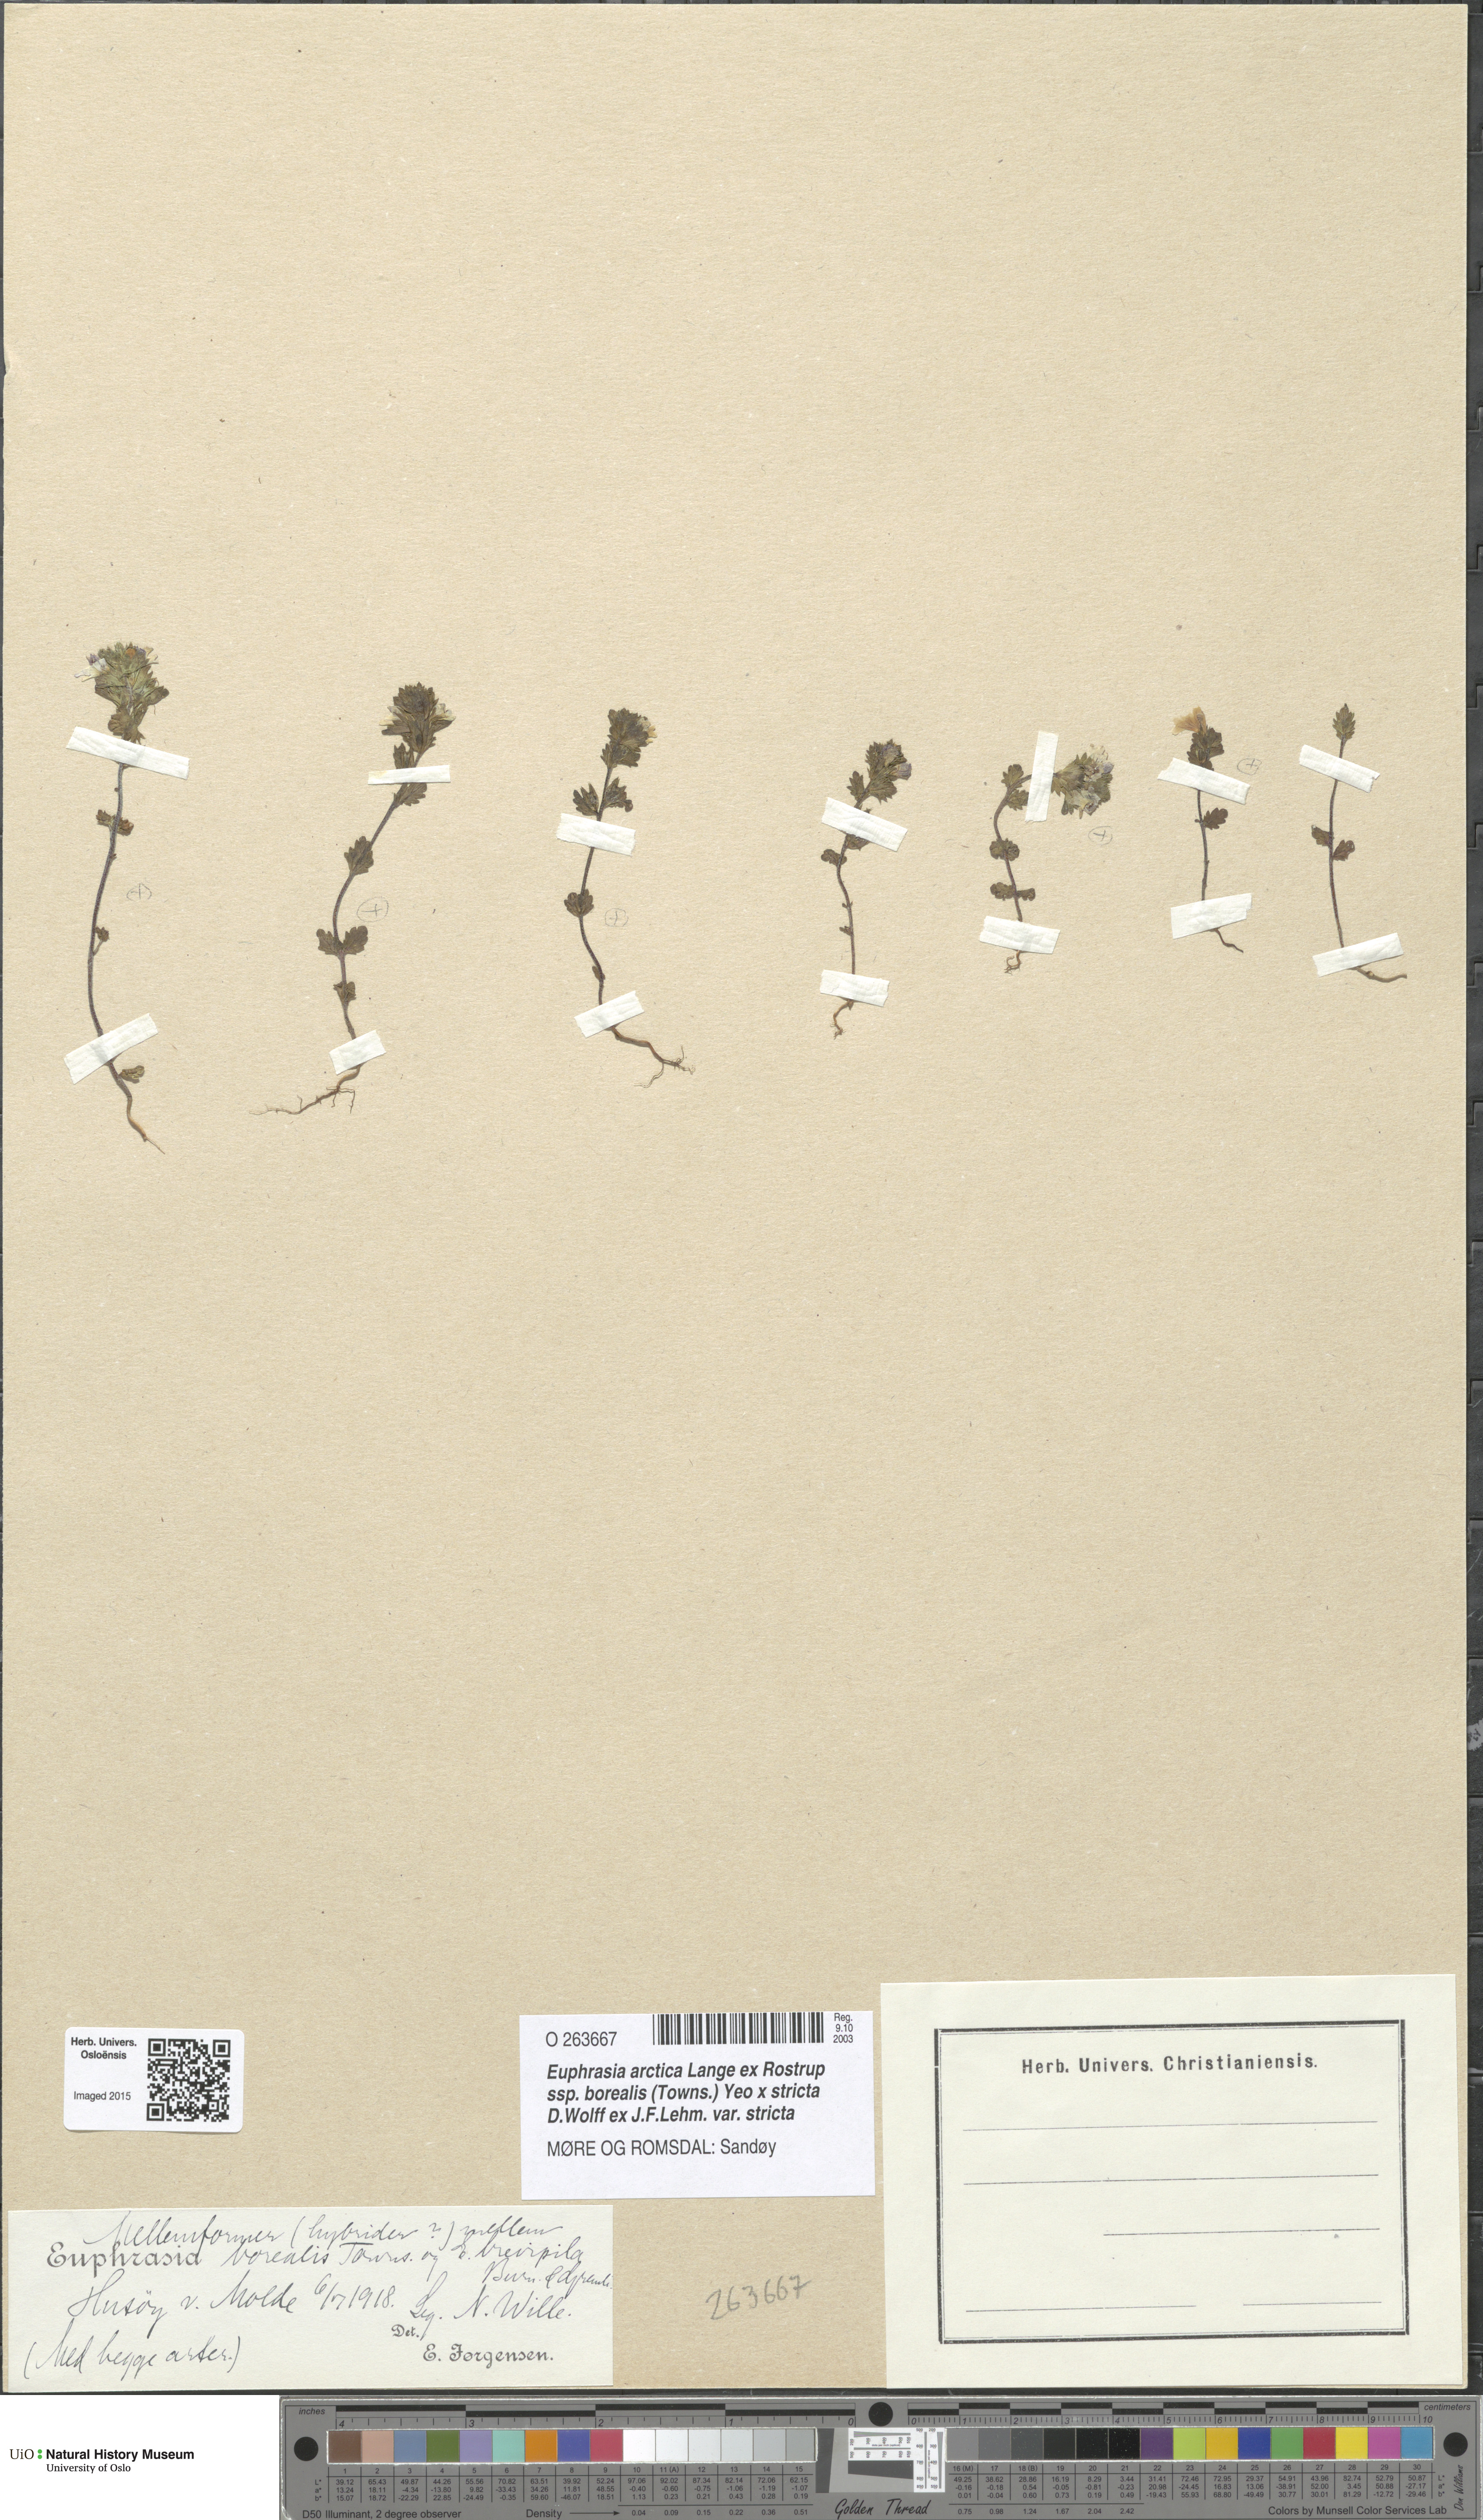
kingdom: Plantae
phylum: Tracheophyta
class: Magnoliopsida
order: Lamiales
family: Orobanchaceae
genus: Euphrasia
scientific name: Euphrasia
